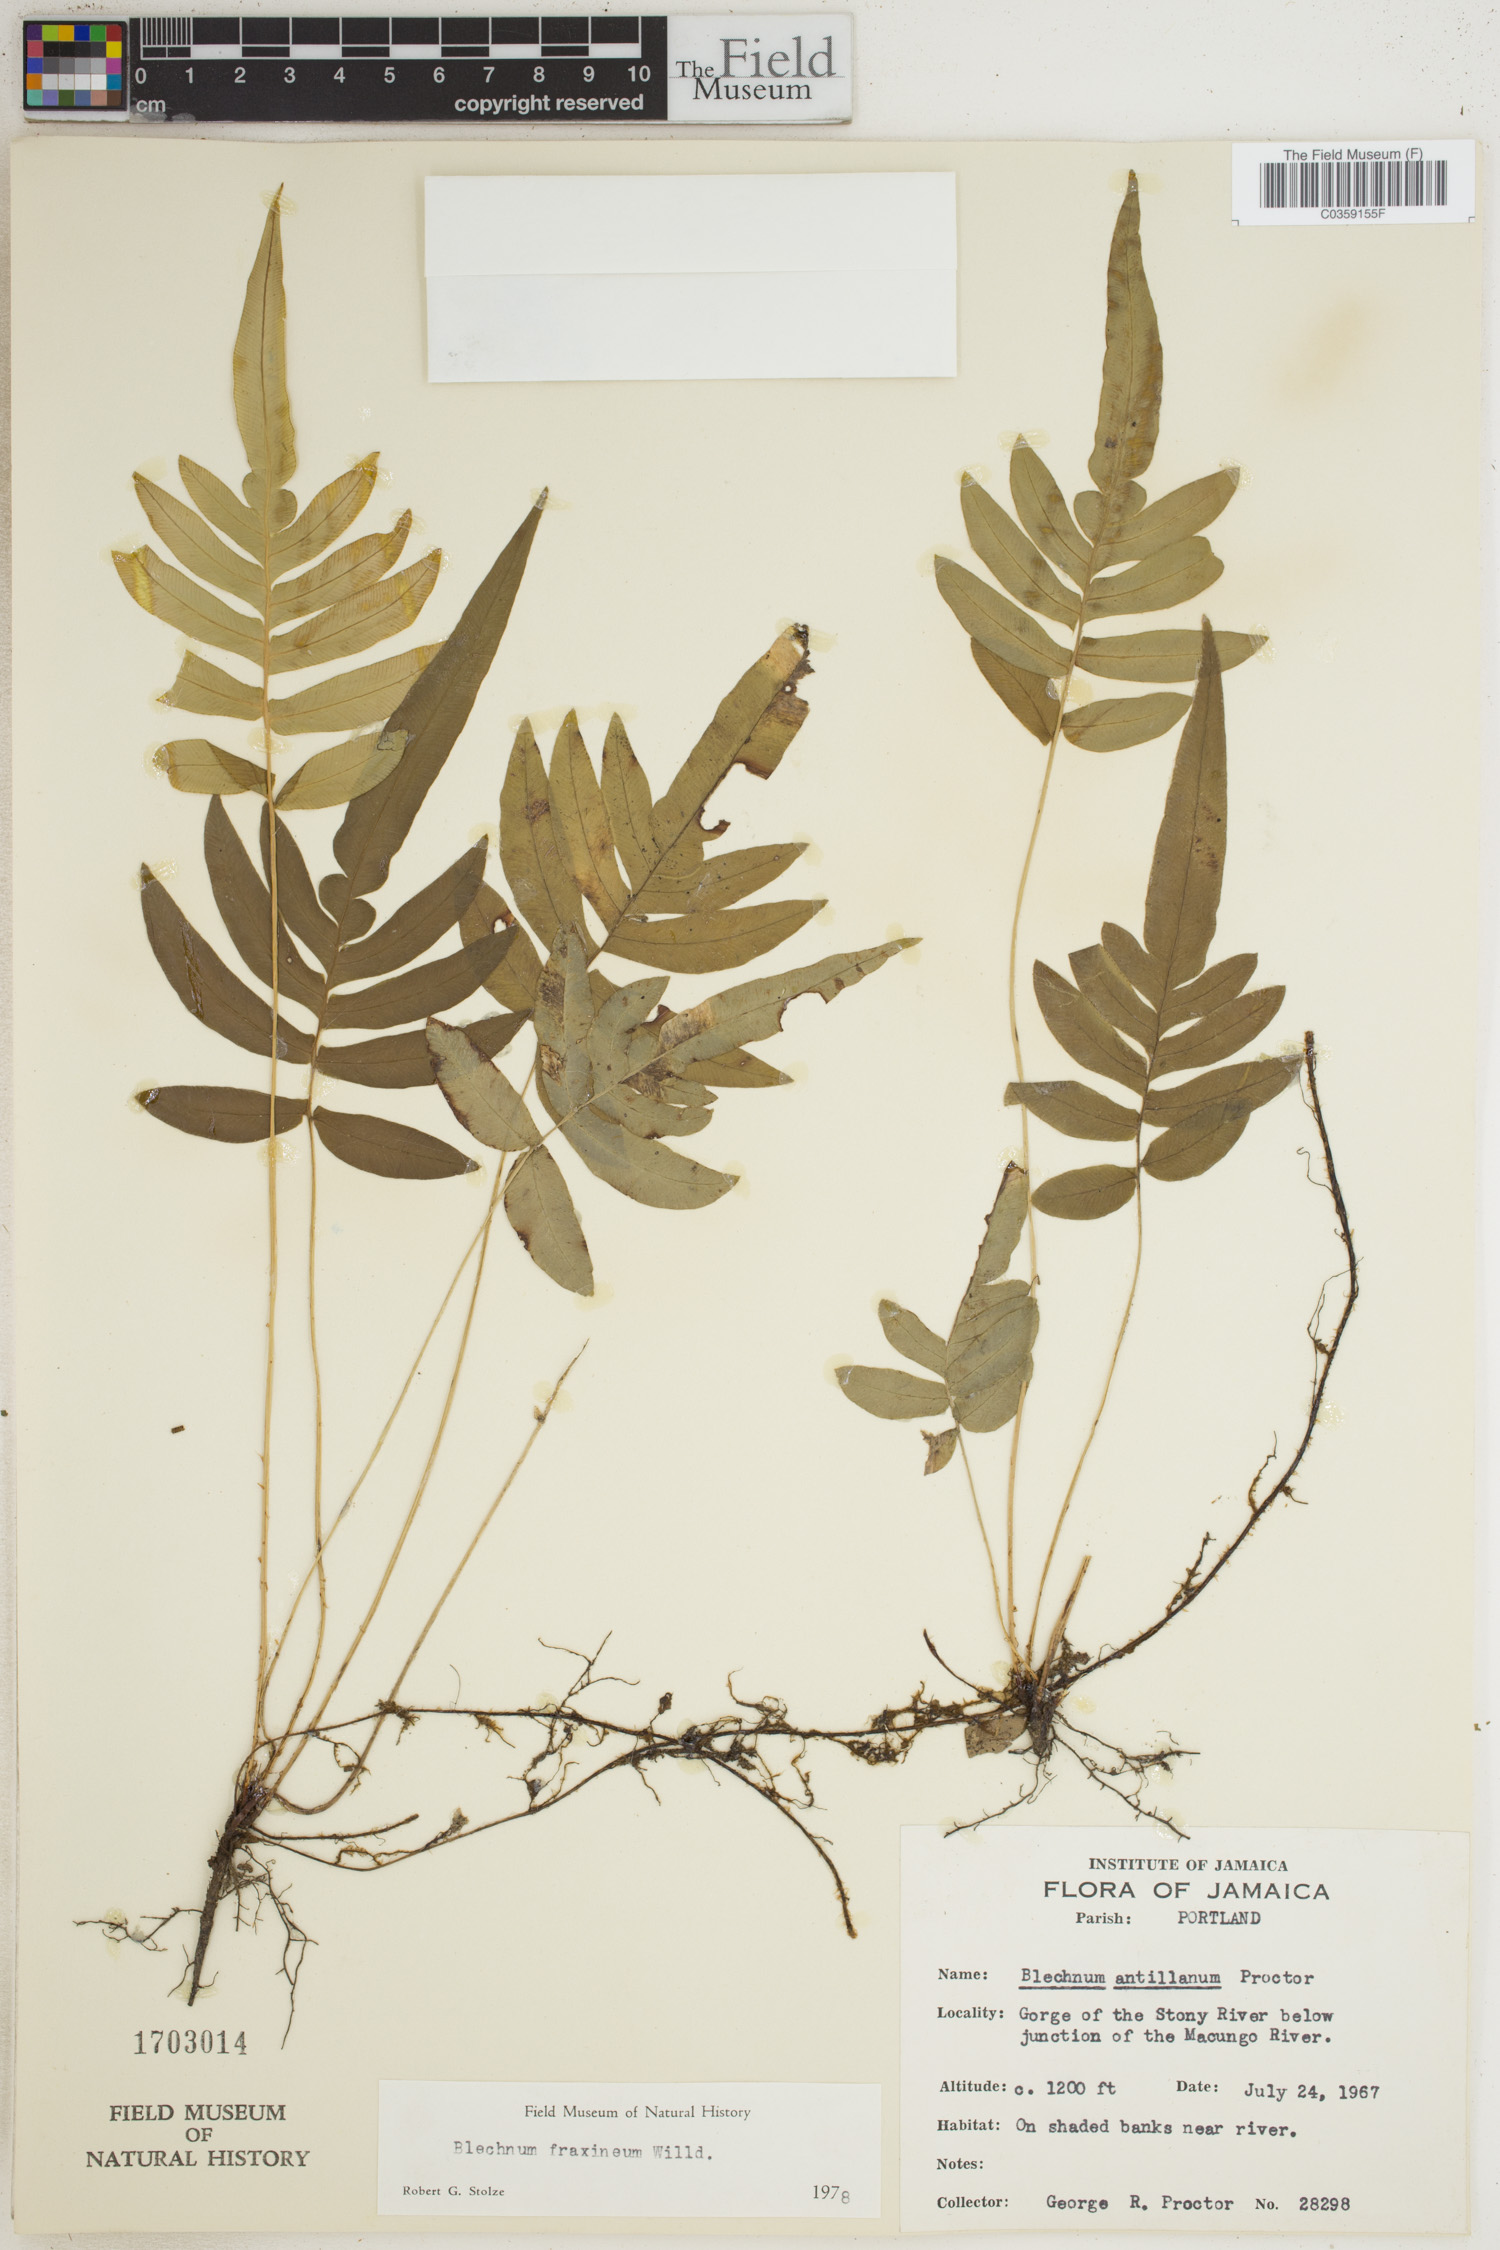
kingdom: Plantae
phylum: Tracheophyta
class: Polypodiopsida
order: Polypodiales
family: Blechnaceae
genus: Blechnum
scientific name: Blechnum gracile
